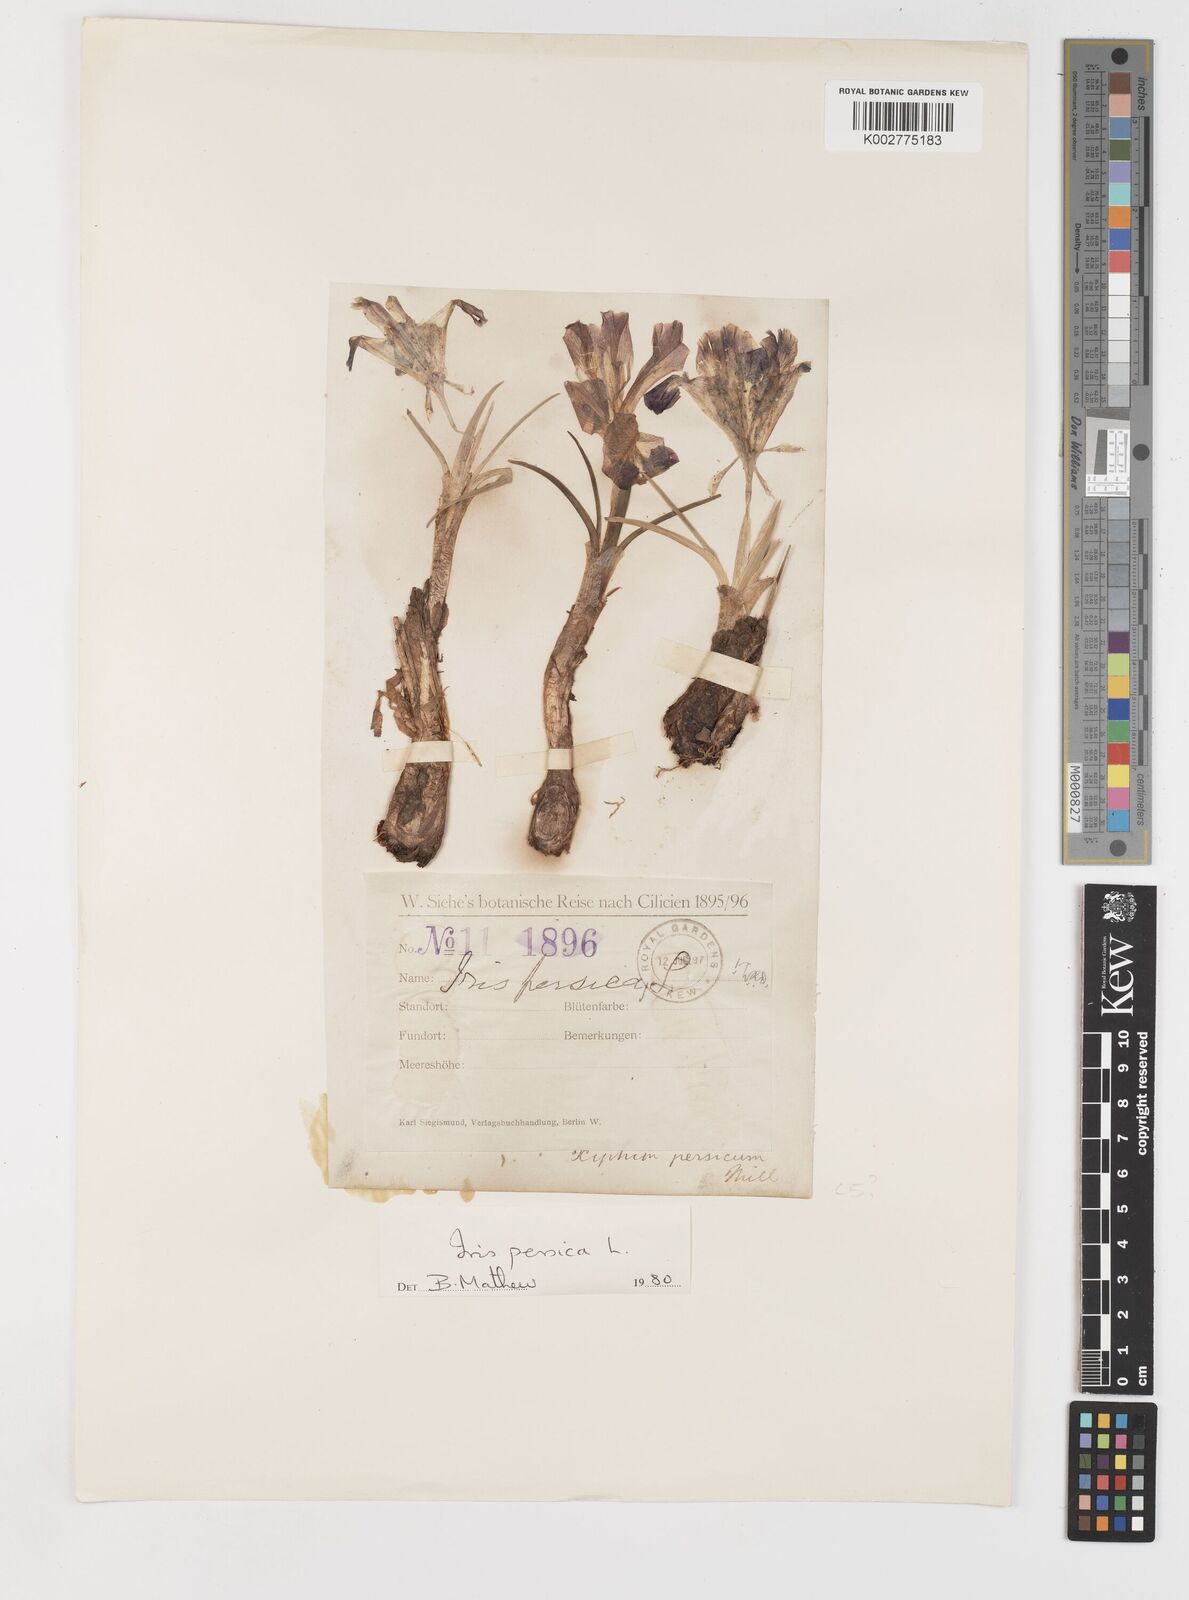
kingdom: Plantae
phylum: Tracheophyta
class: Liliopsida
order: Asparagales
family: Iridaceae
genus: Iris
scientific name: Iris persica
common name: Persian iris
